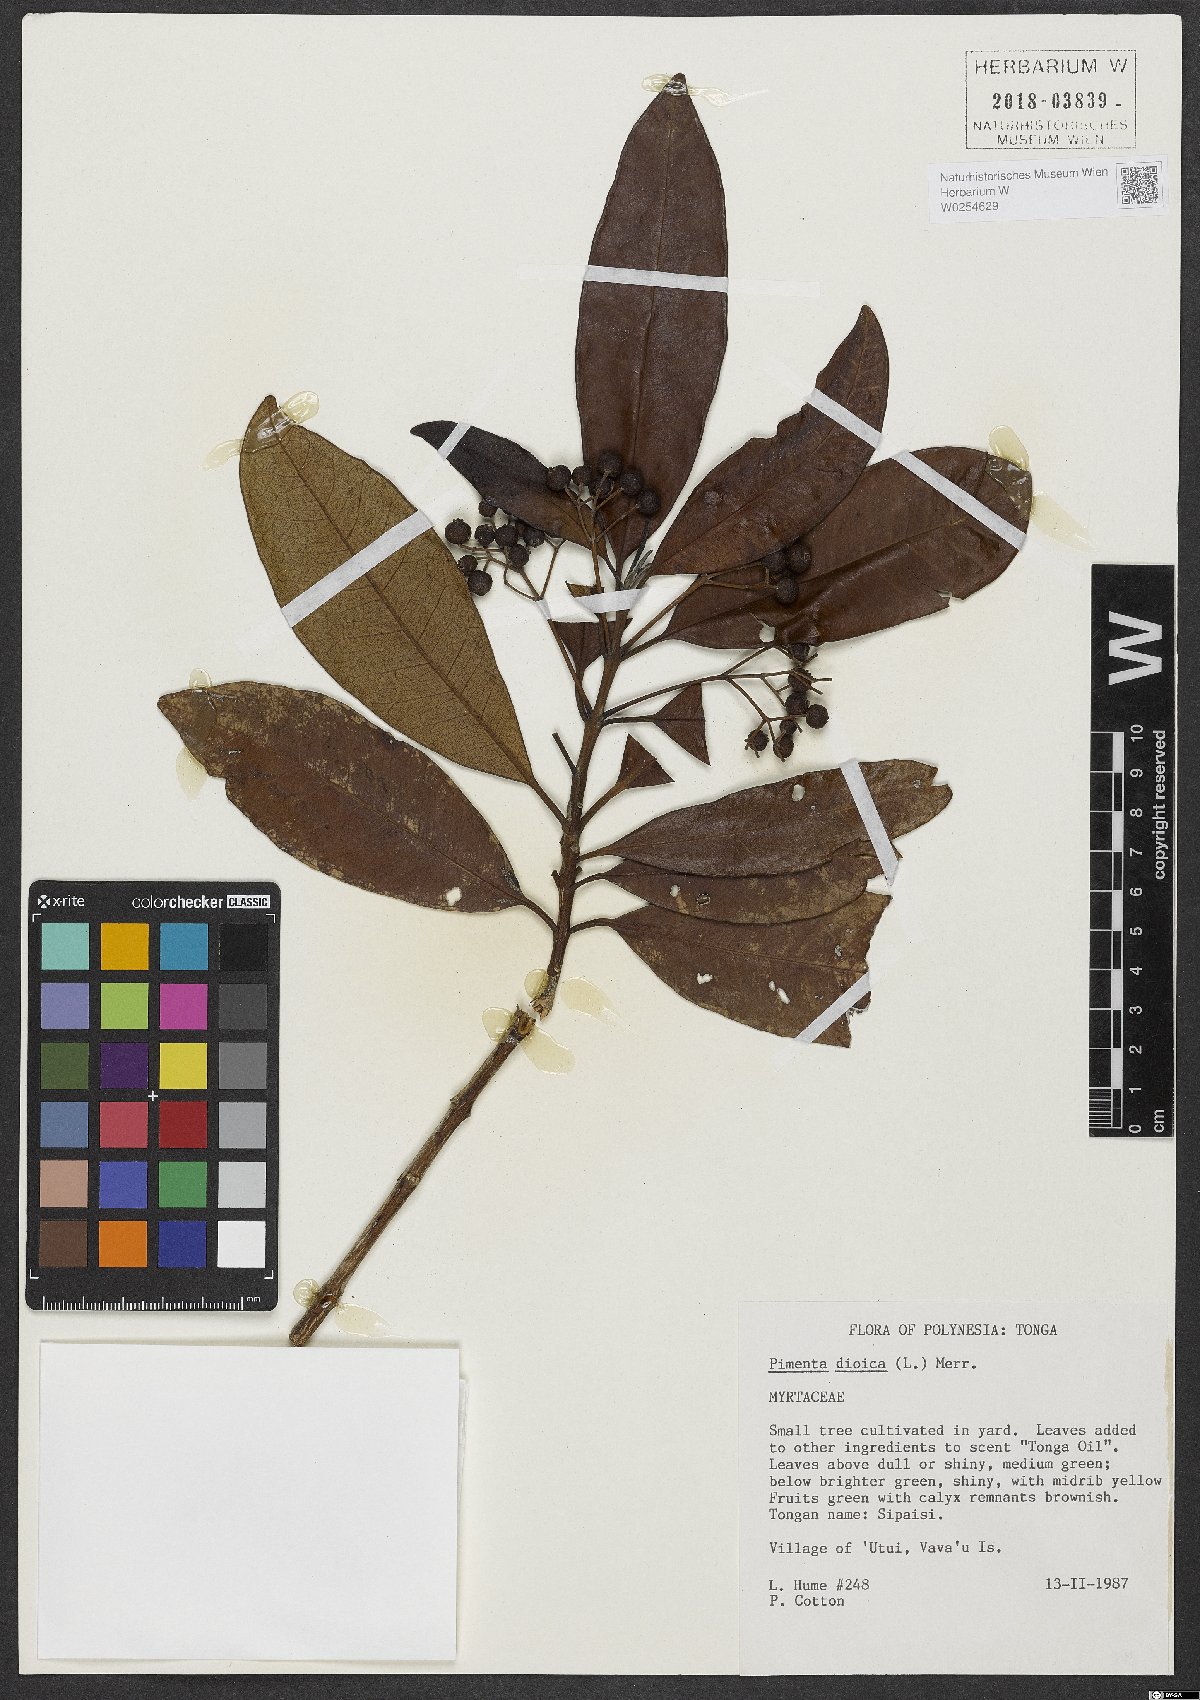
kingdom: Plantae
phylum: Tracheophyta
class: Magnoliopsida
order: Myrtales
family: Myrtaceae
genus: Pimenta
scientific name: Pimenta dioica
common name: Allspice
